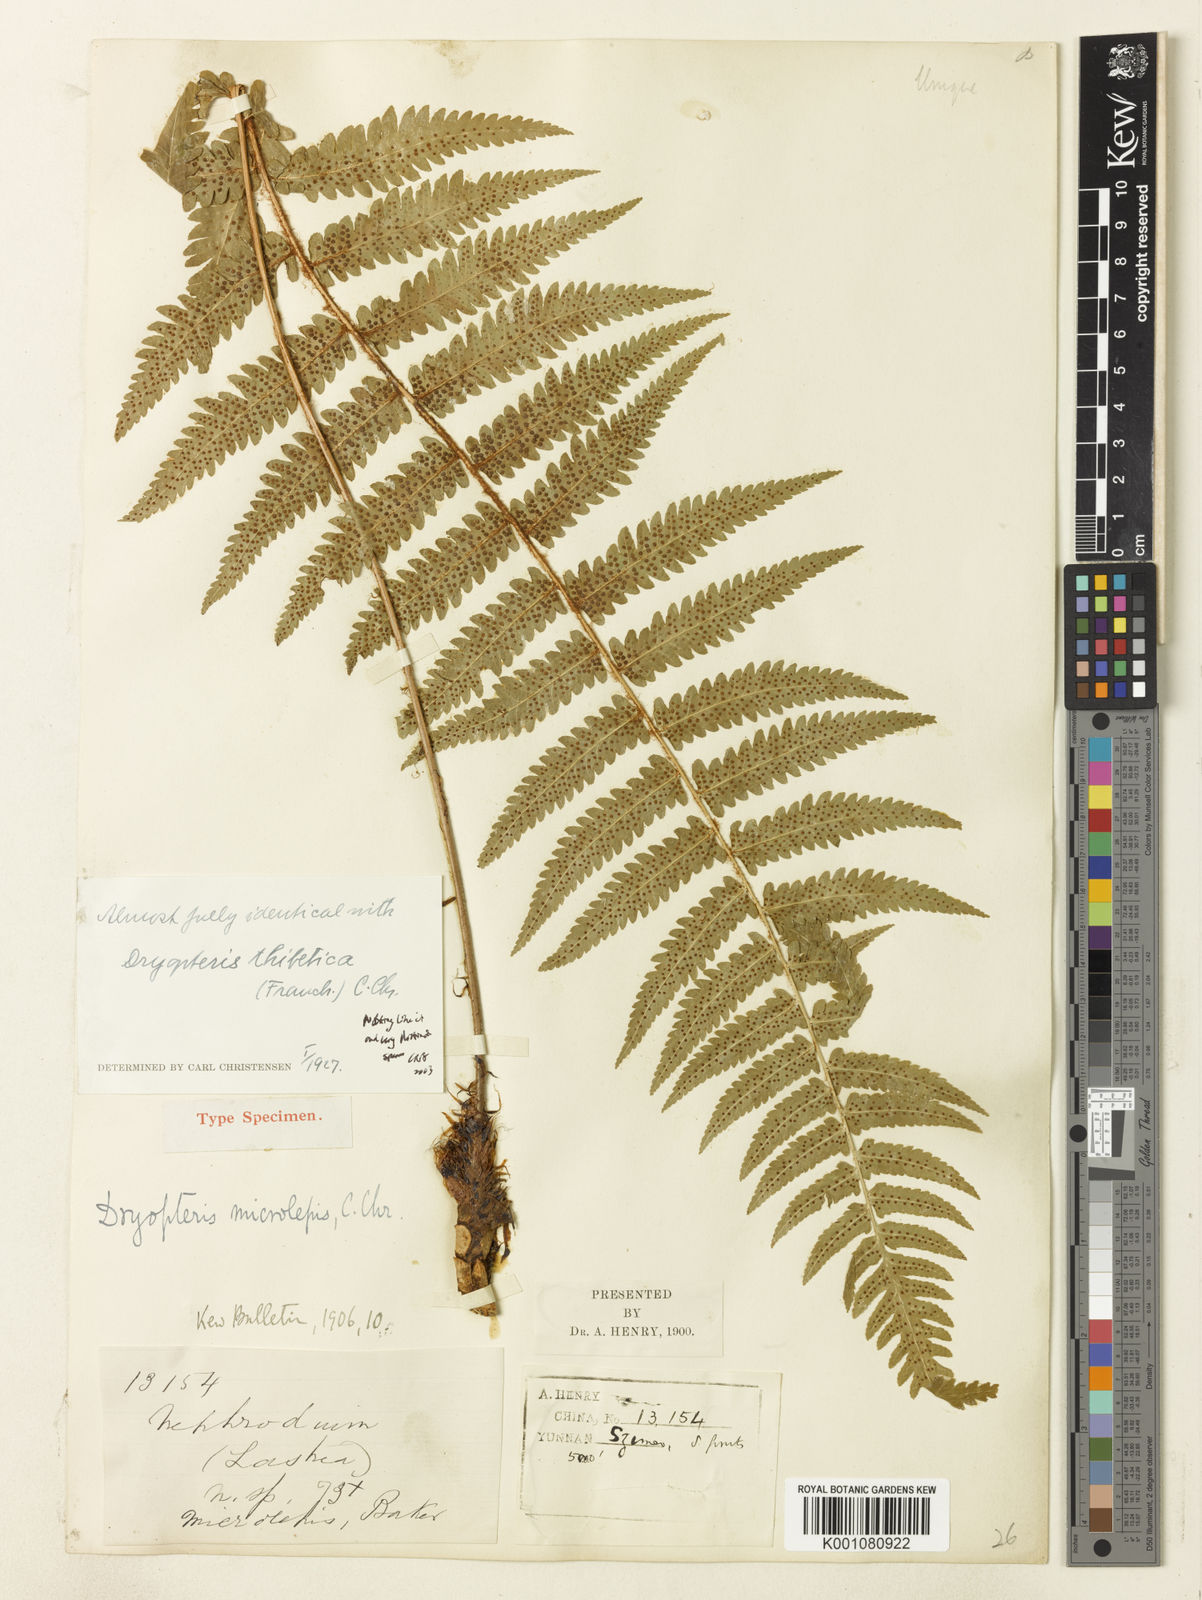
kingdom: Plantae
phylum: Tracheophyta
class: Polypodiopsida
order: Polypodiales
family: Dryopteridaceae
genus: Dryopteris
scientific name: Dryopteris microlepis
